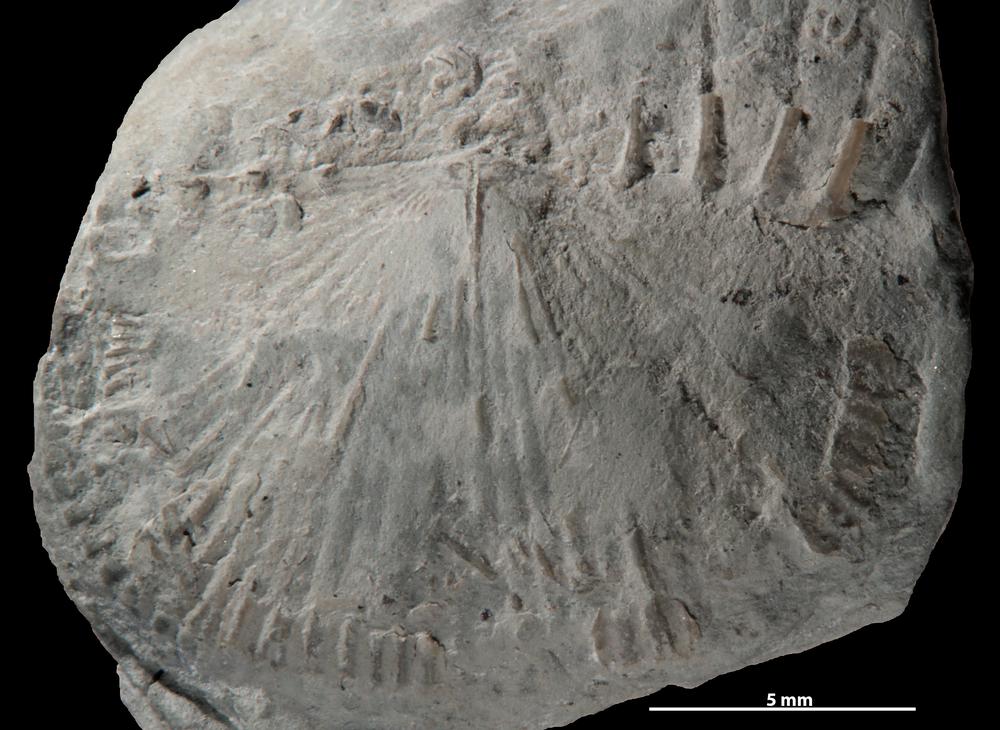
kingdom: Animalia
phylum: Brachiopoda
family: Strophochonetidae
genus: Protochonetes
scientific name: Protochonetes piltenensis
